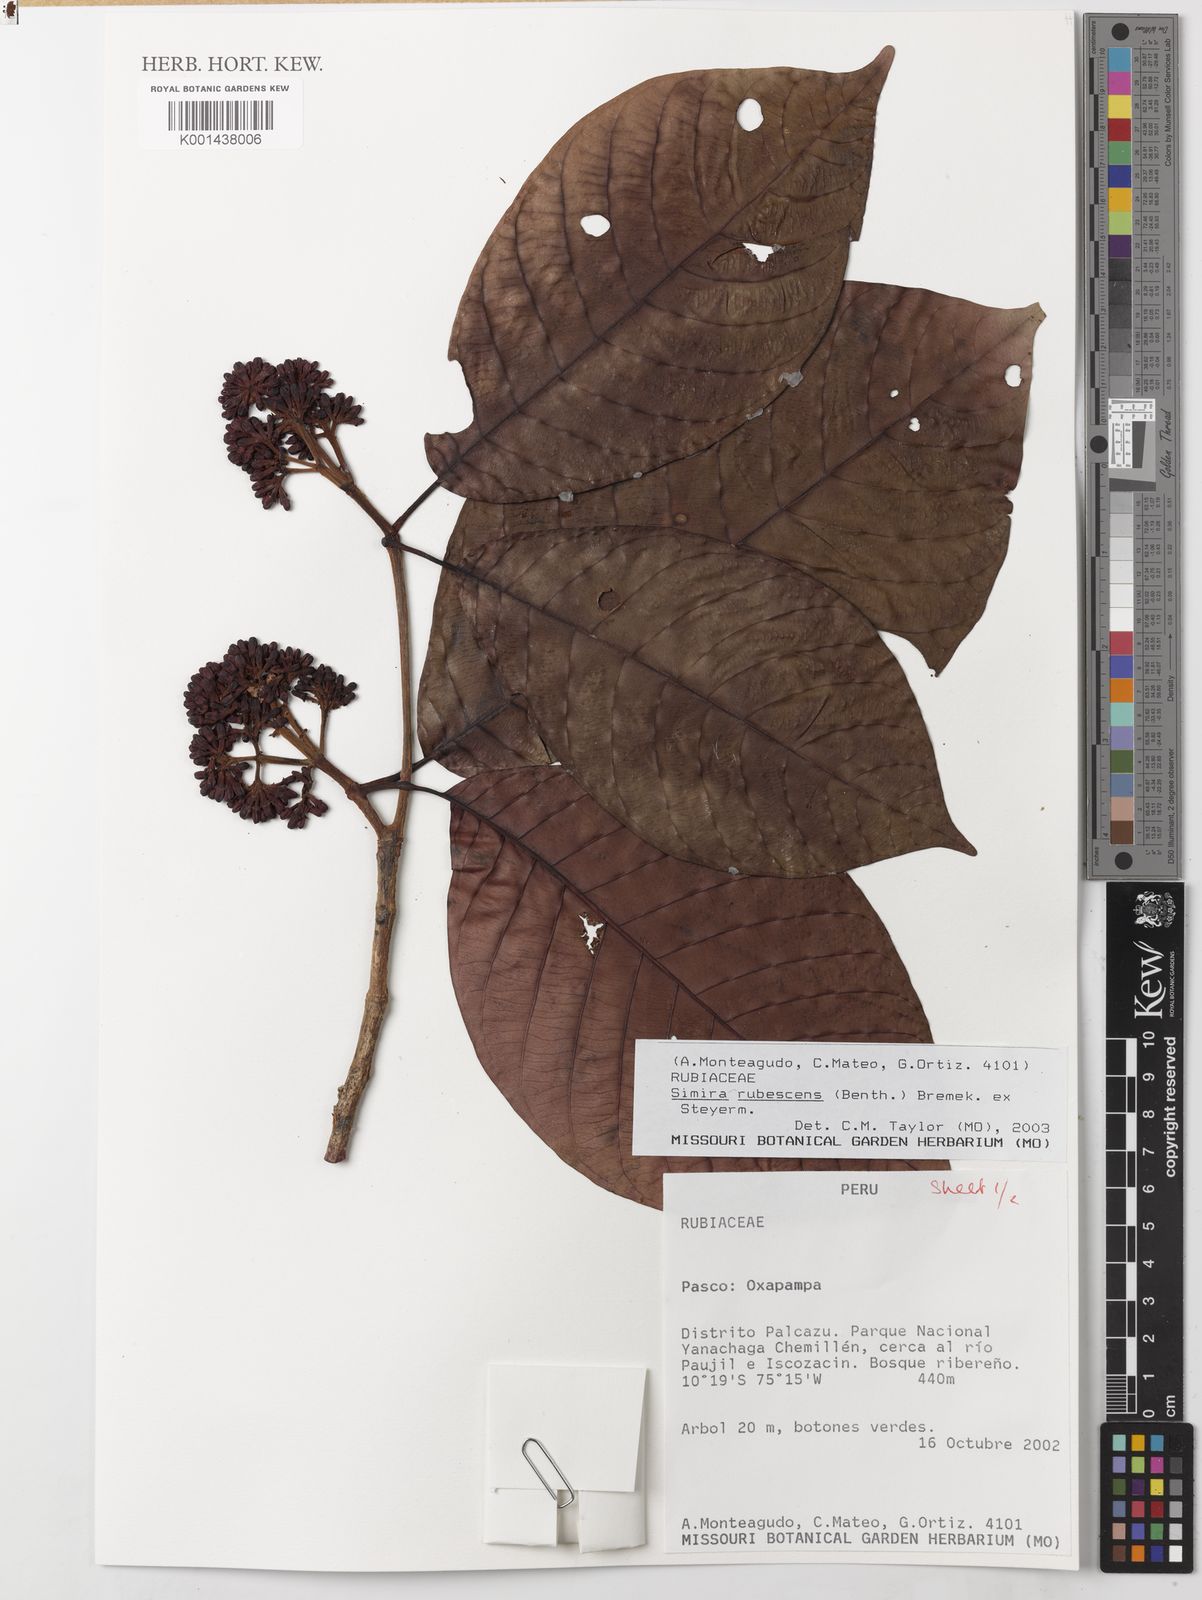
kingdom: Plantae
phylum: Tracheophyta
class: Magnoliopsida
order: Gentianales
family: Rubiaceae
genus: Simira
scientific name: Simira rubescens
